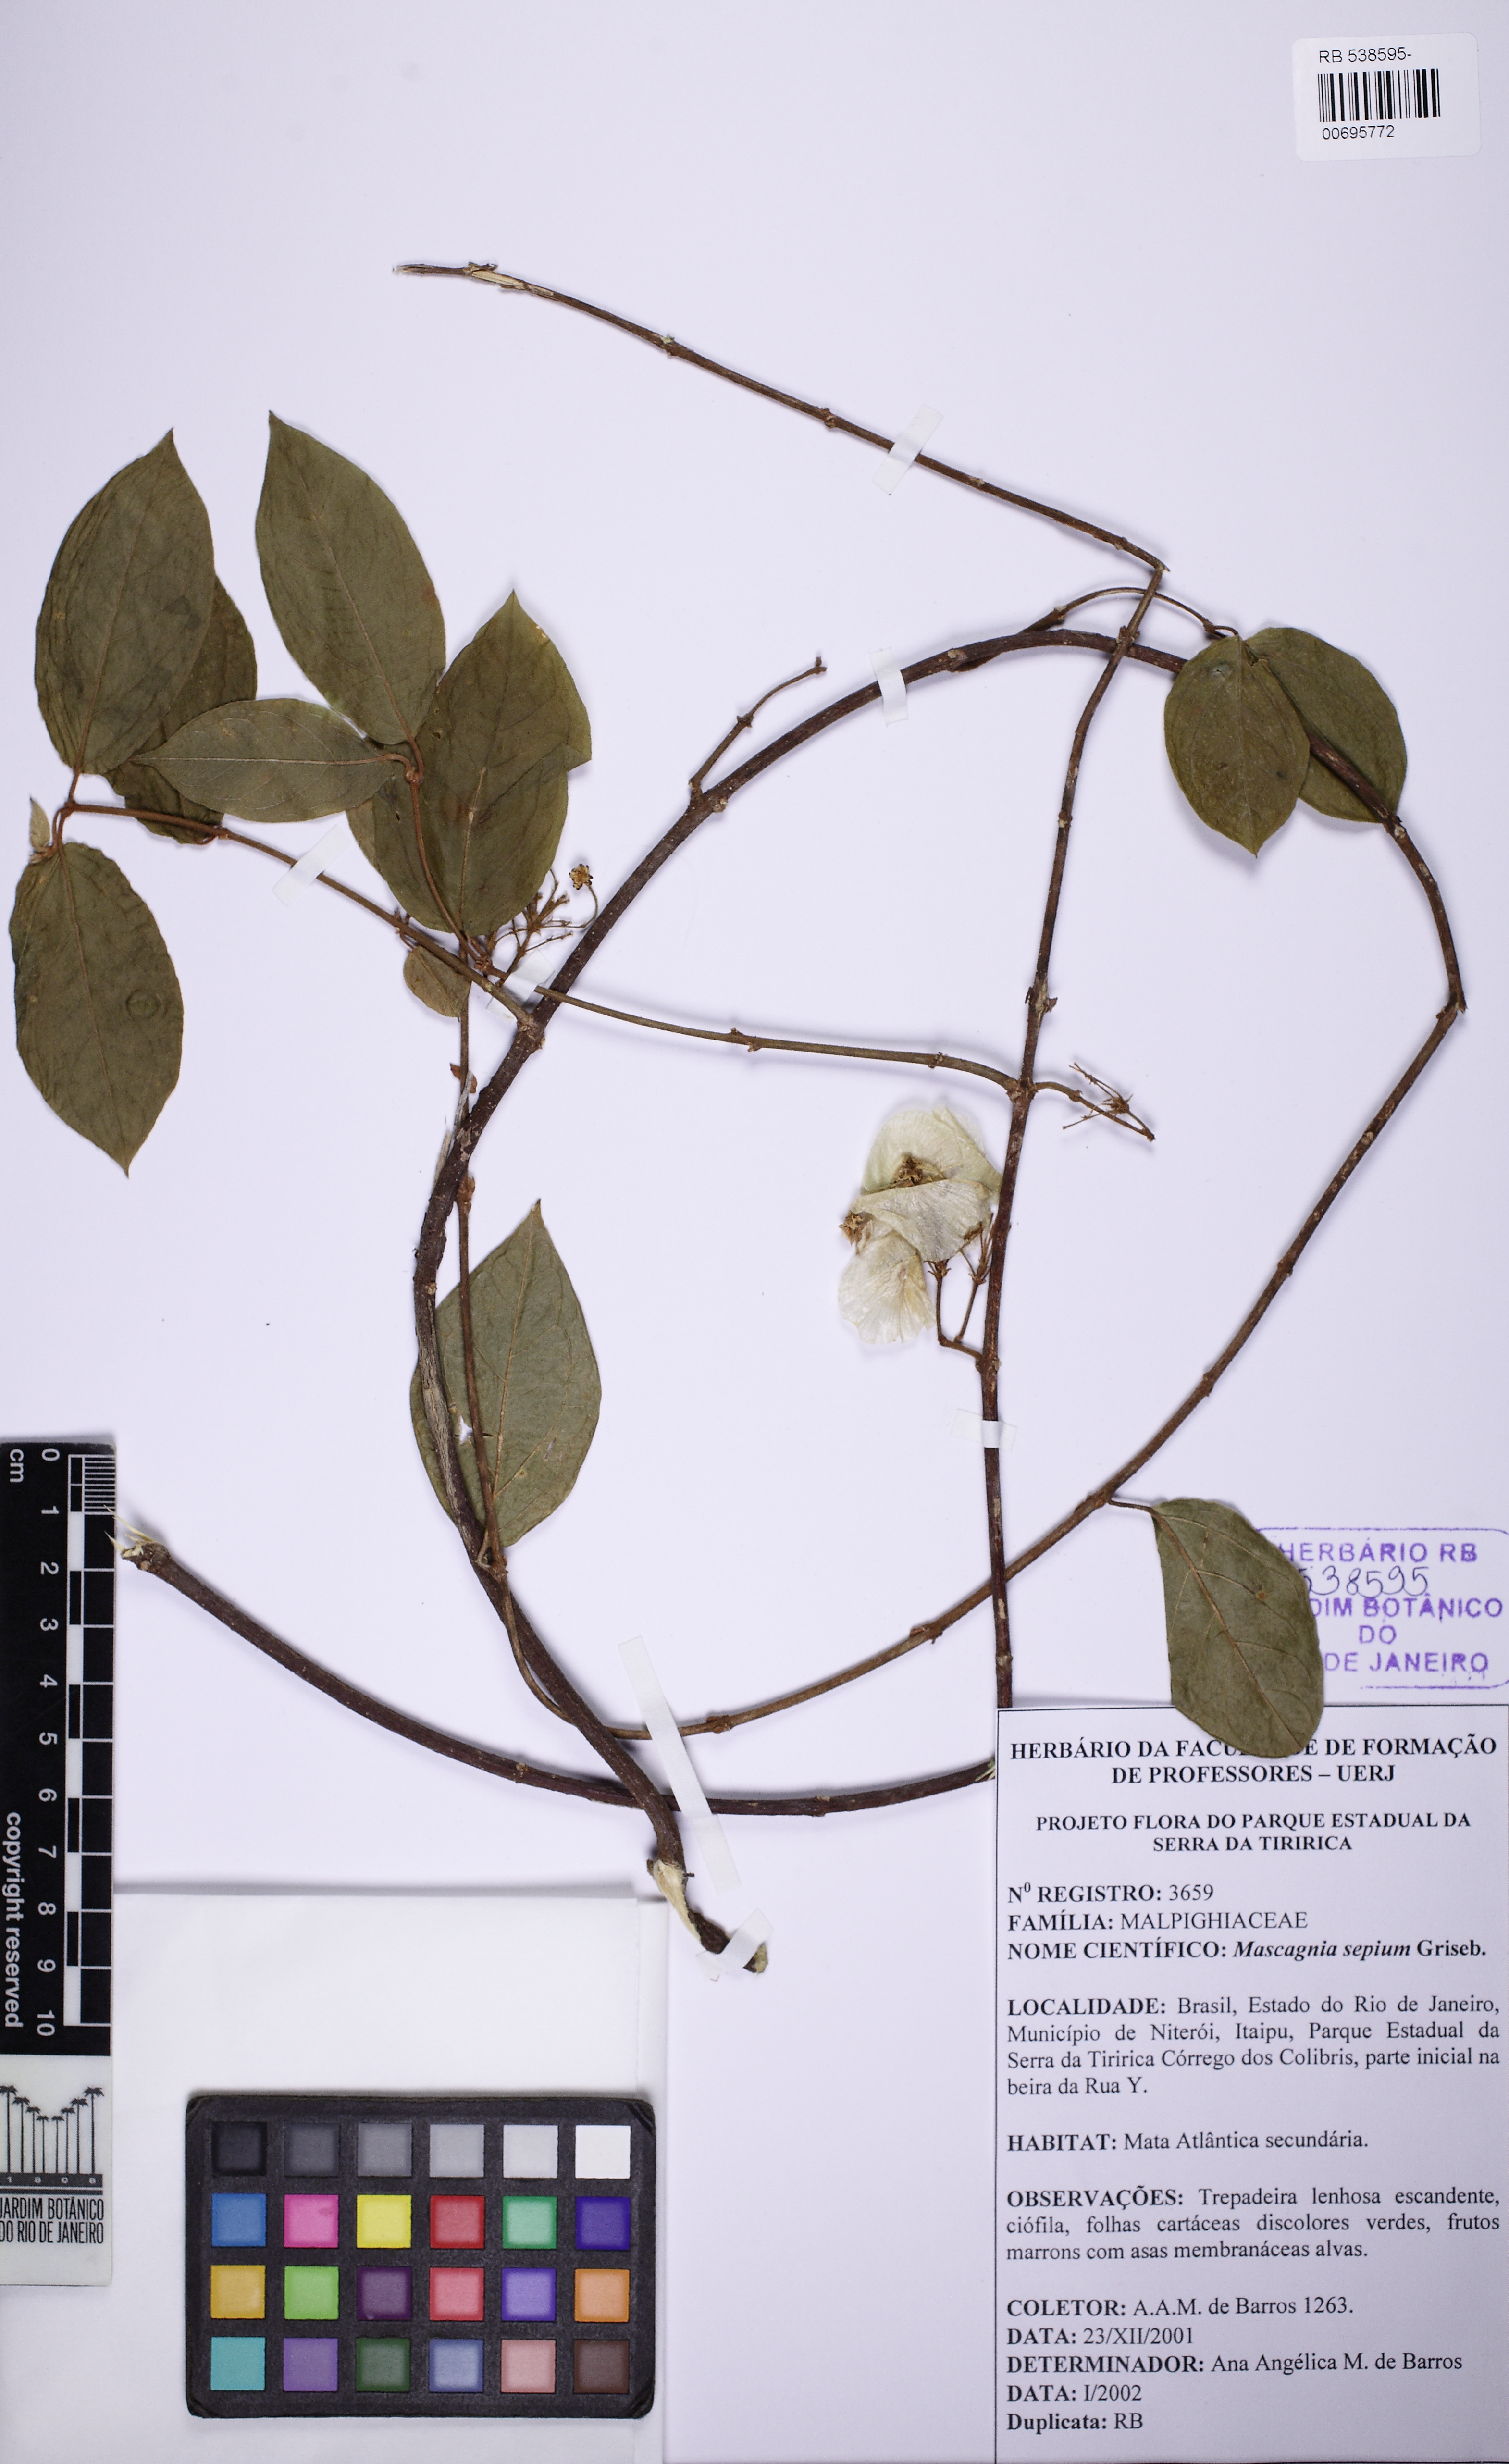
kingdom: Plantae
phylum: Tracheophyta
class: Magnoliopsida
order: Malpighiales
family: Malpighiaceae
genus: Mascagnia
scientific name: Mascagnia sepium
